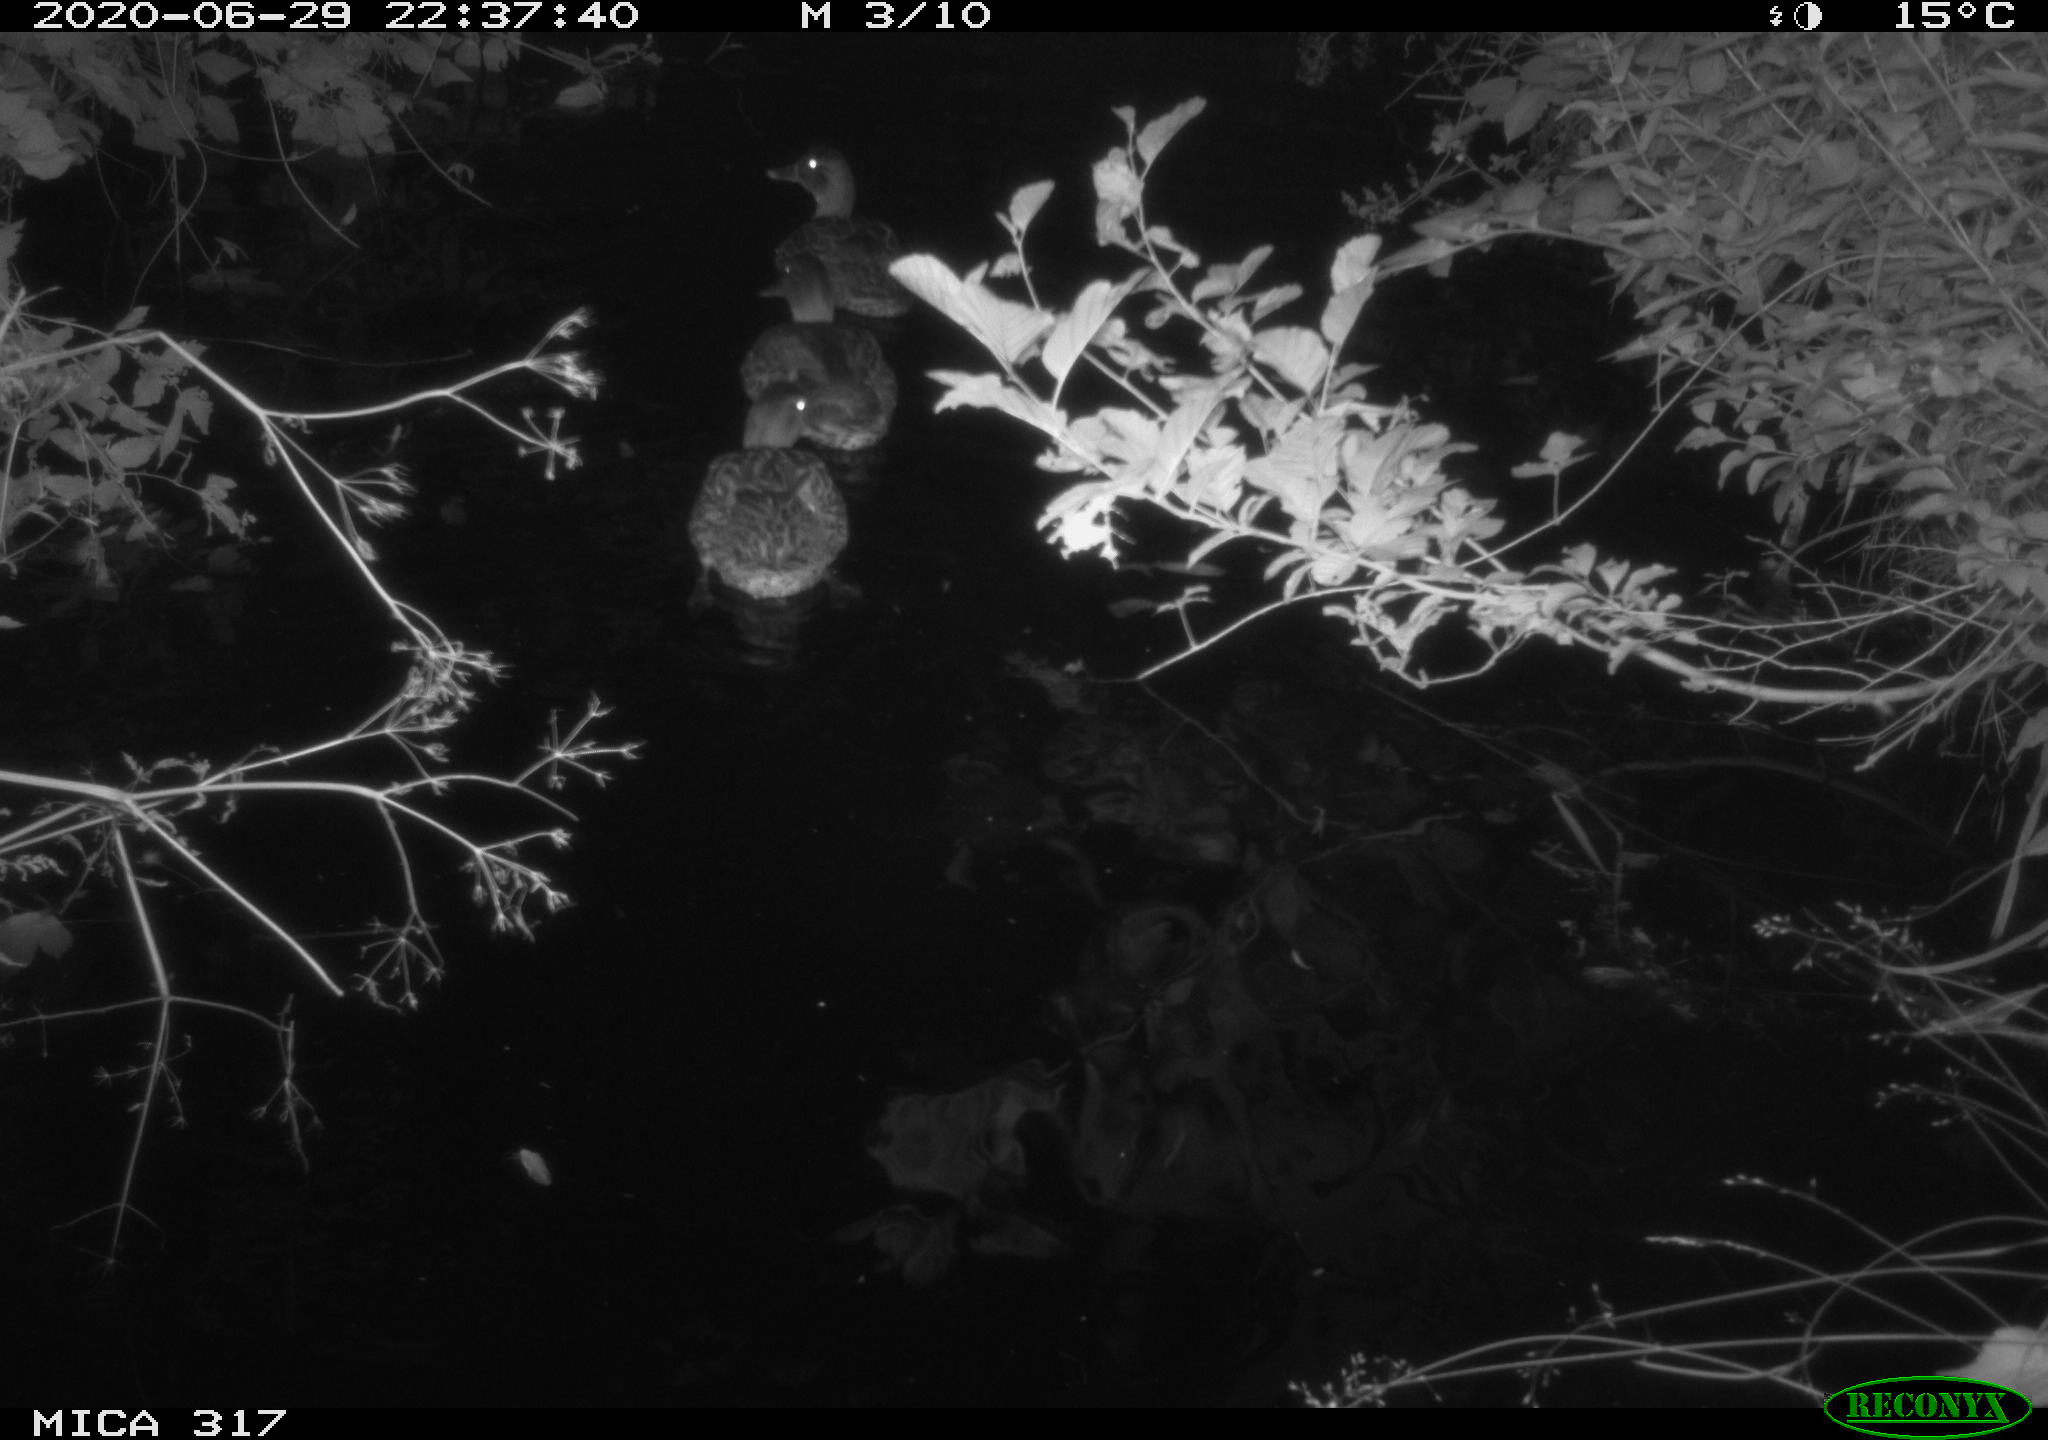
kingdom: Animalia
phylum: Chordata
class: Aves
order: Anseriformes
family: Anatidae
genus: Anas
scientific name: Anas platyrhynchos
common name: Mallard
